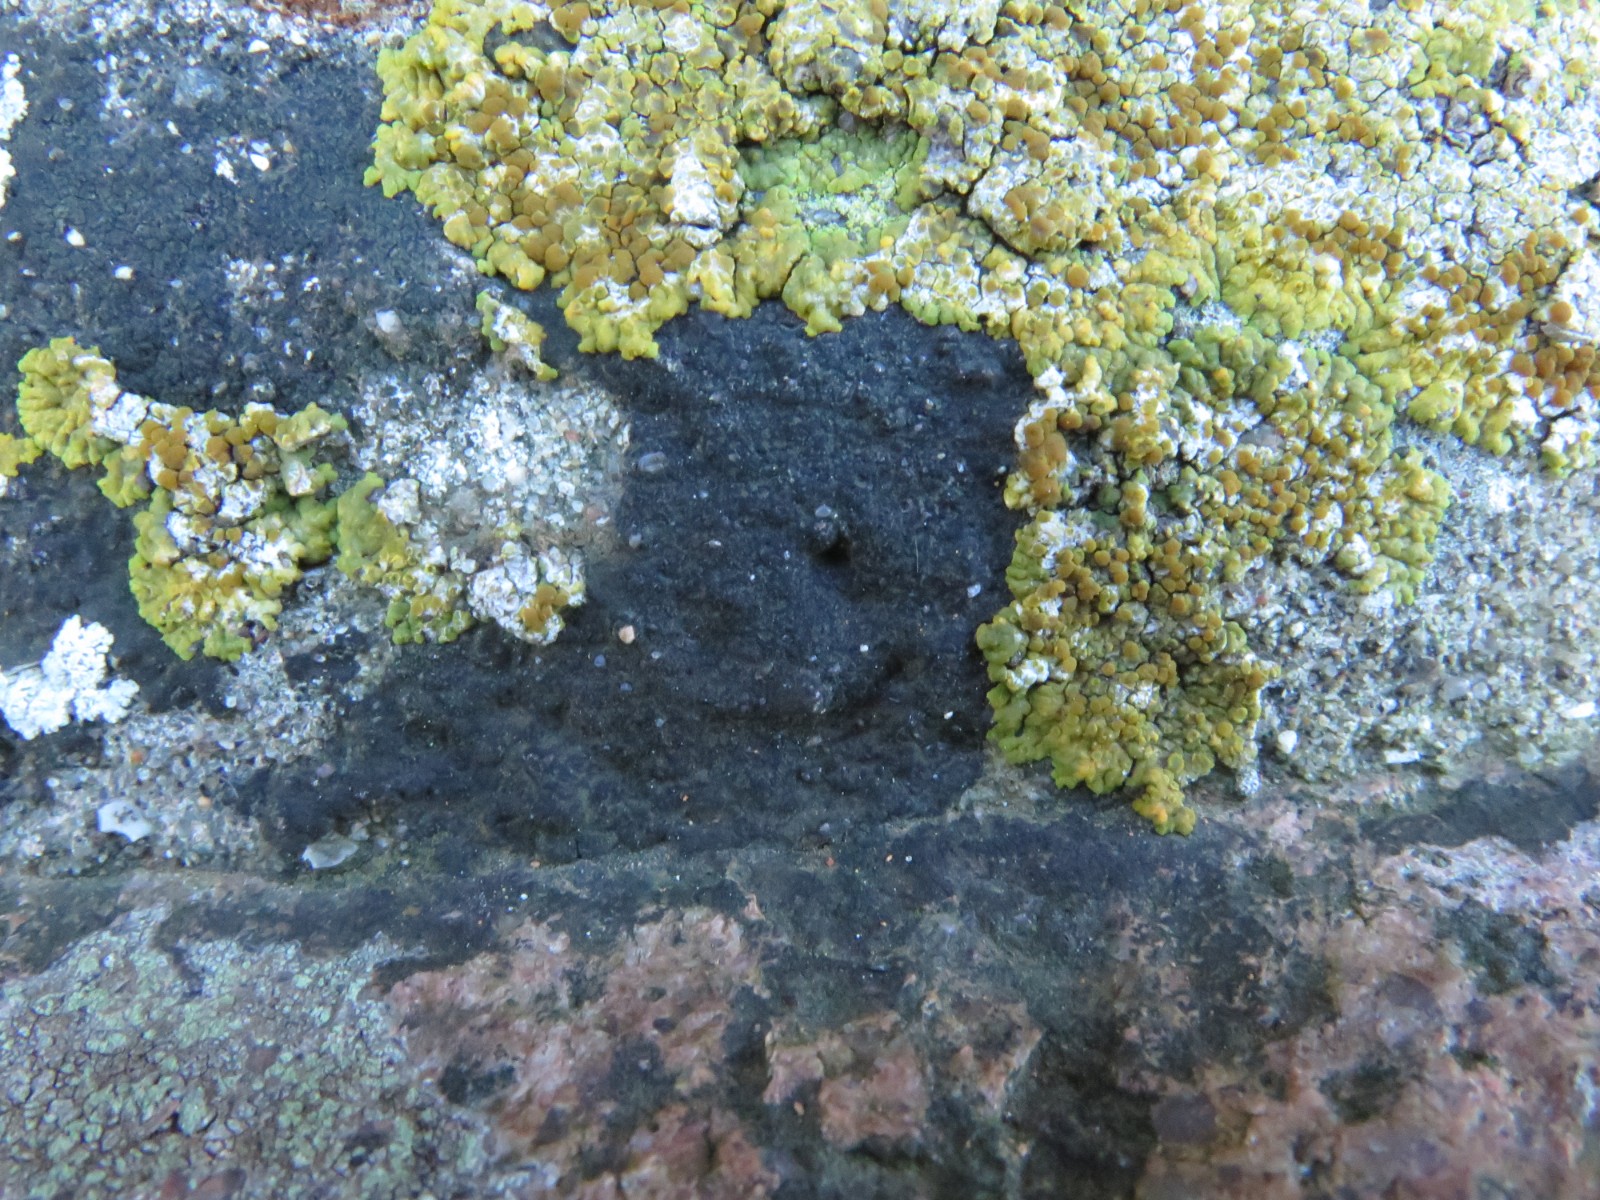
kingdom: Fungi
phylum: Ascomycota
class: Eurotiomycetes
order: Verrucariales
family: Verrucariaceae
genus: Verrucaria
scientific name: Verrucaria nigrescens
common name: sortbrun vortelav
